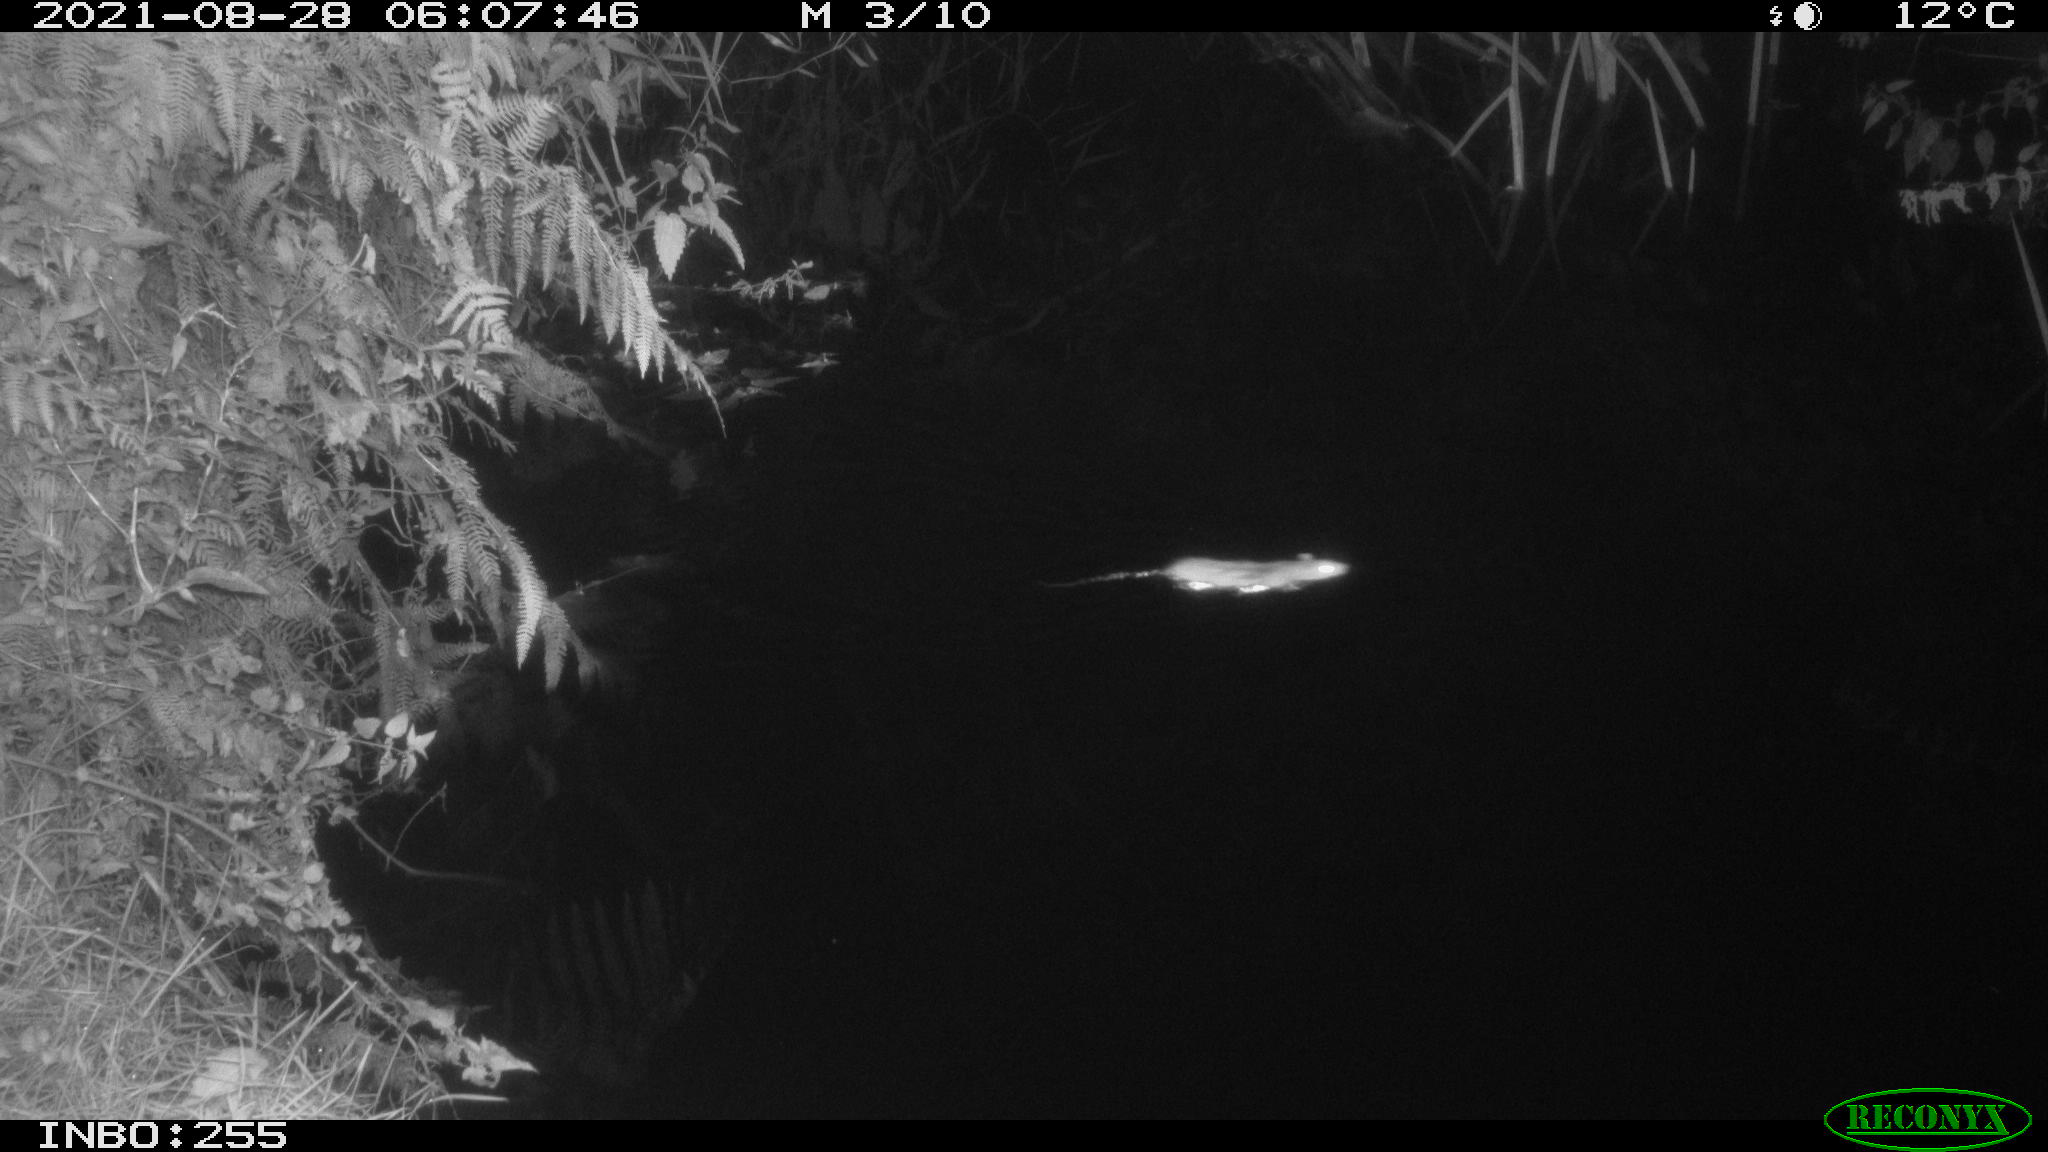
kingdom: Animalia
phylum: Chordata
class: Mammalia
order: Rodentia
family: Muridae
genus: Rattus
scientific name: Rattus norvegicus
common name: Brown rat
